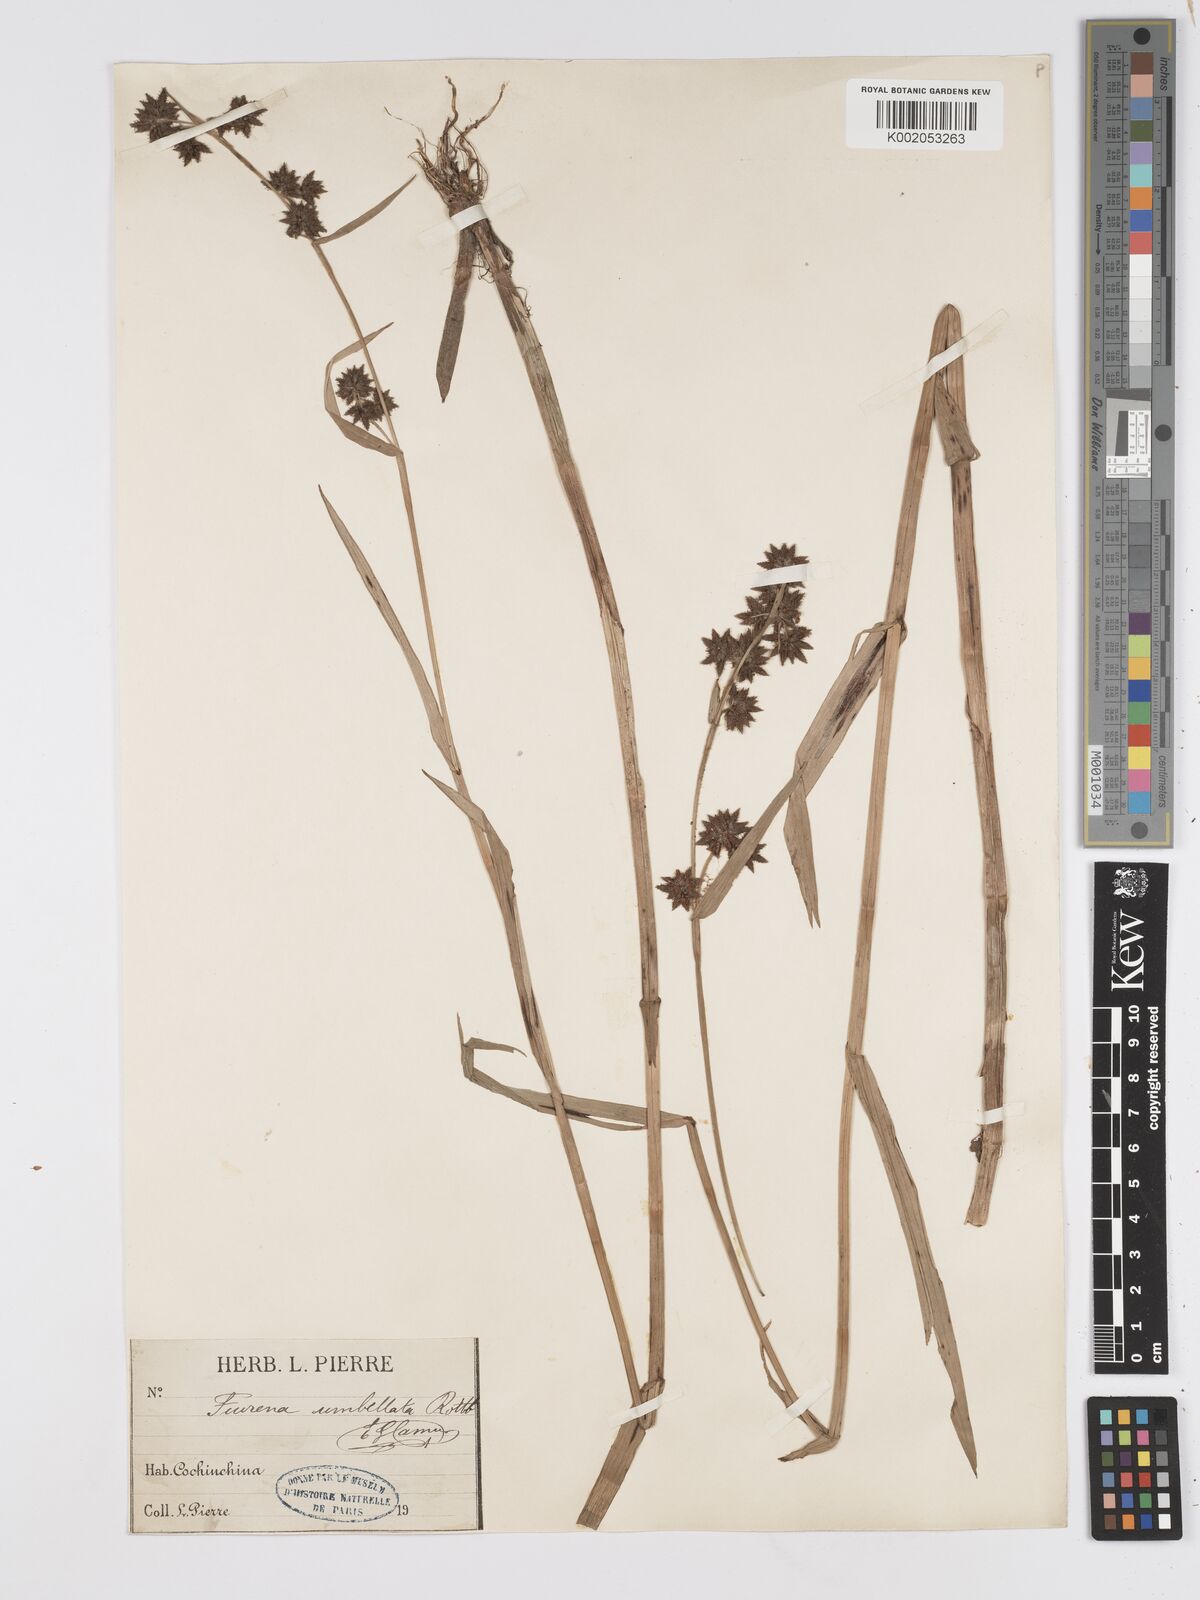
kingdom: Plantae
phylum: Tracheophyta
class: Liliopsida
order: Poales
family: Cyperaceae
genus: Fuirena
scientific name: Fuirena umbellata
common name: Yefen
